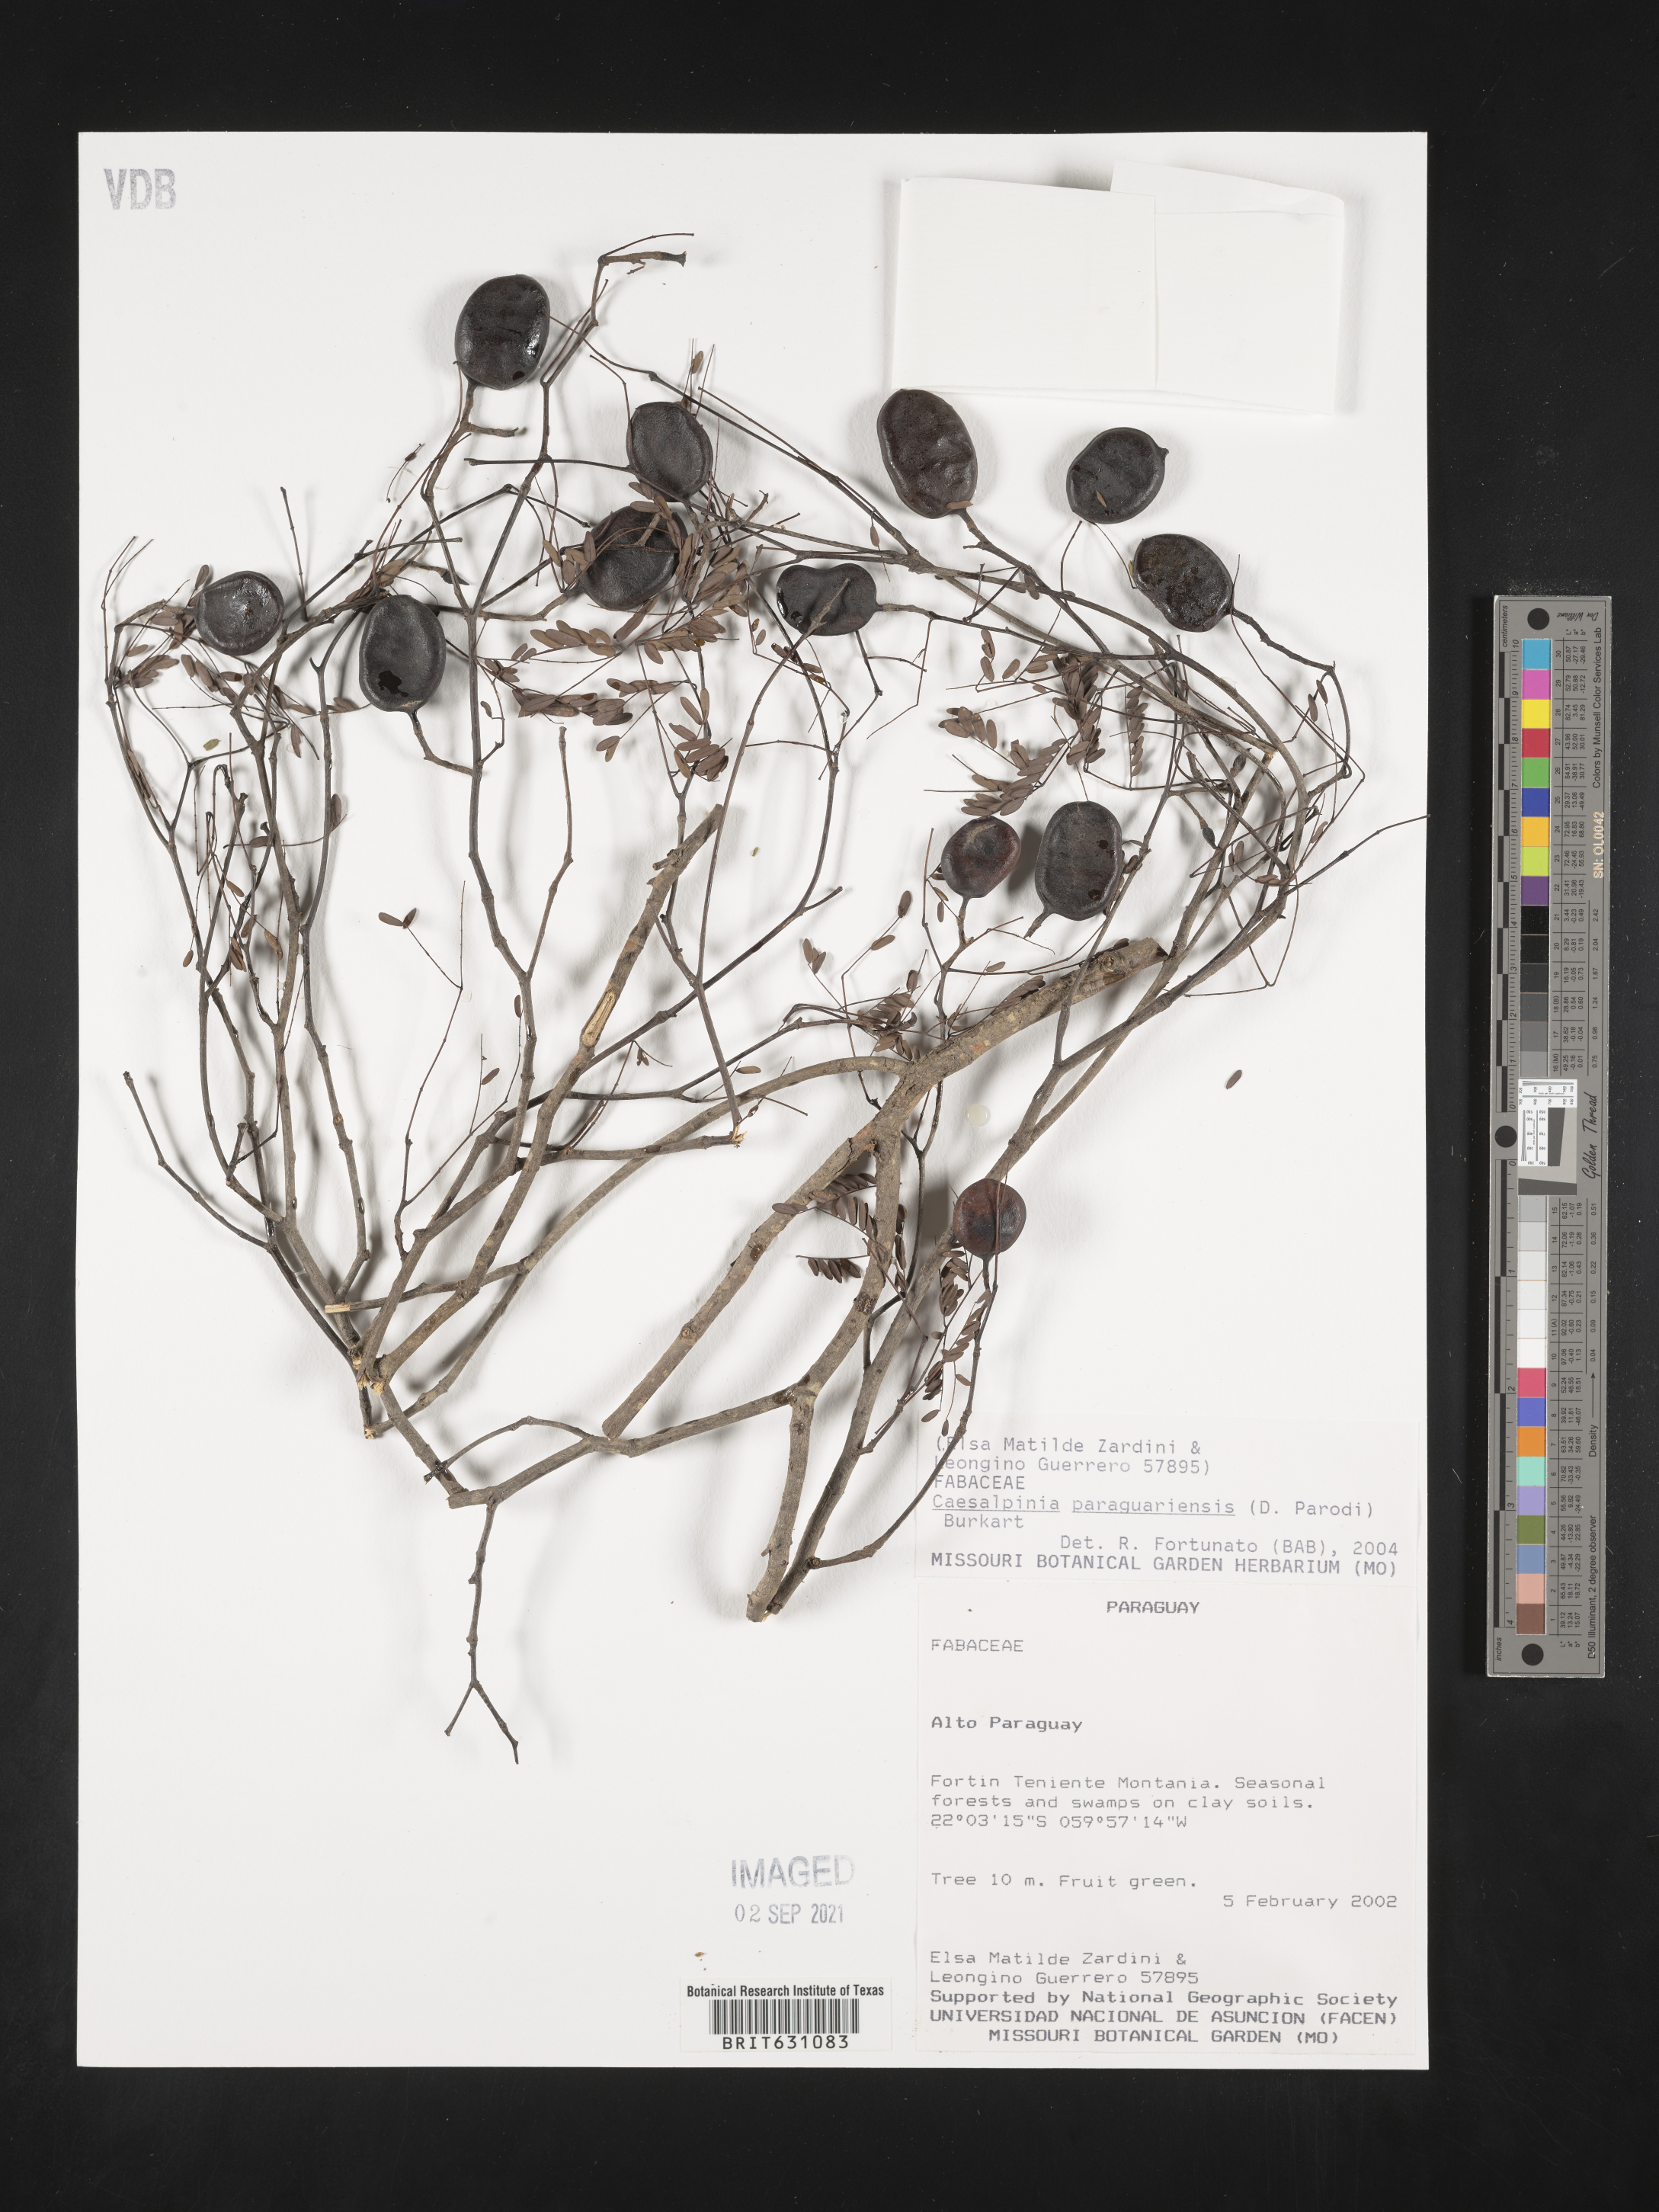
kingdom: Plantae
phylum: Tracheophyta
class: Magnoliopsida
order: Fabales
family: Fabaceae
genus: Caesalpinia
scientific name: Caesalpinia
